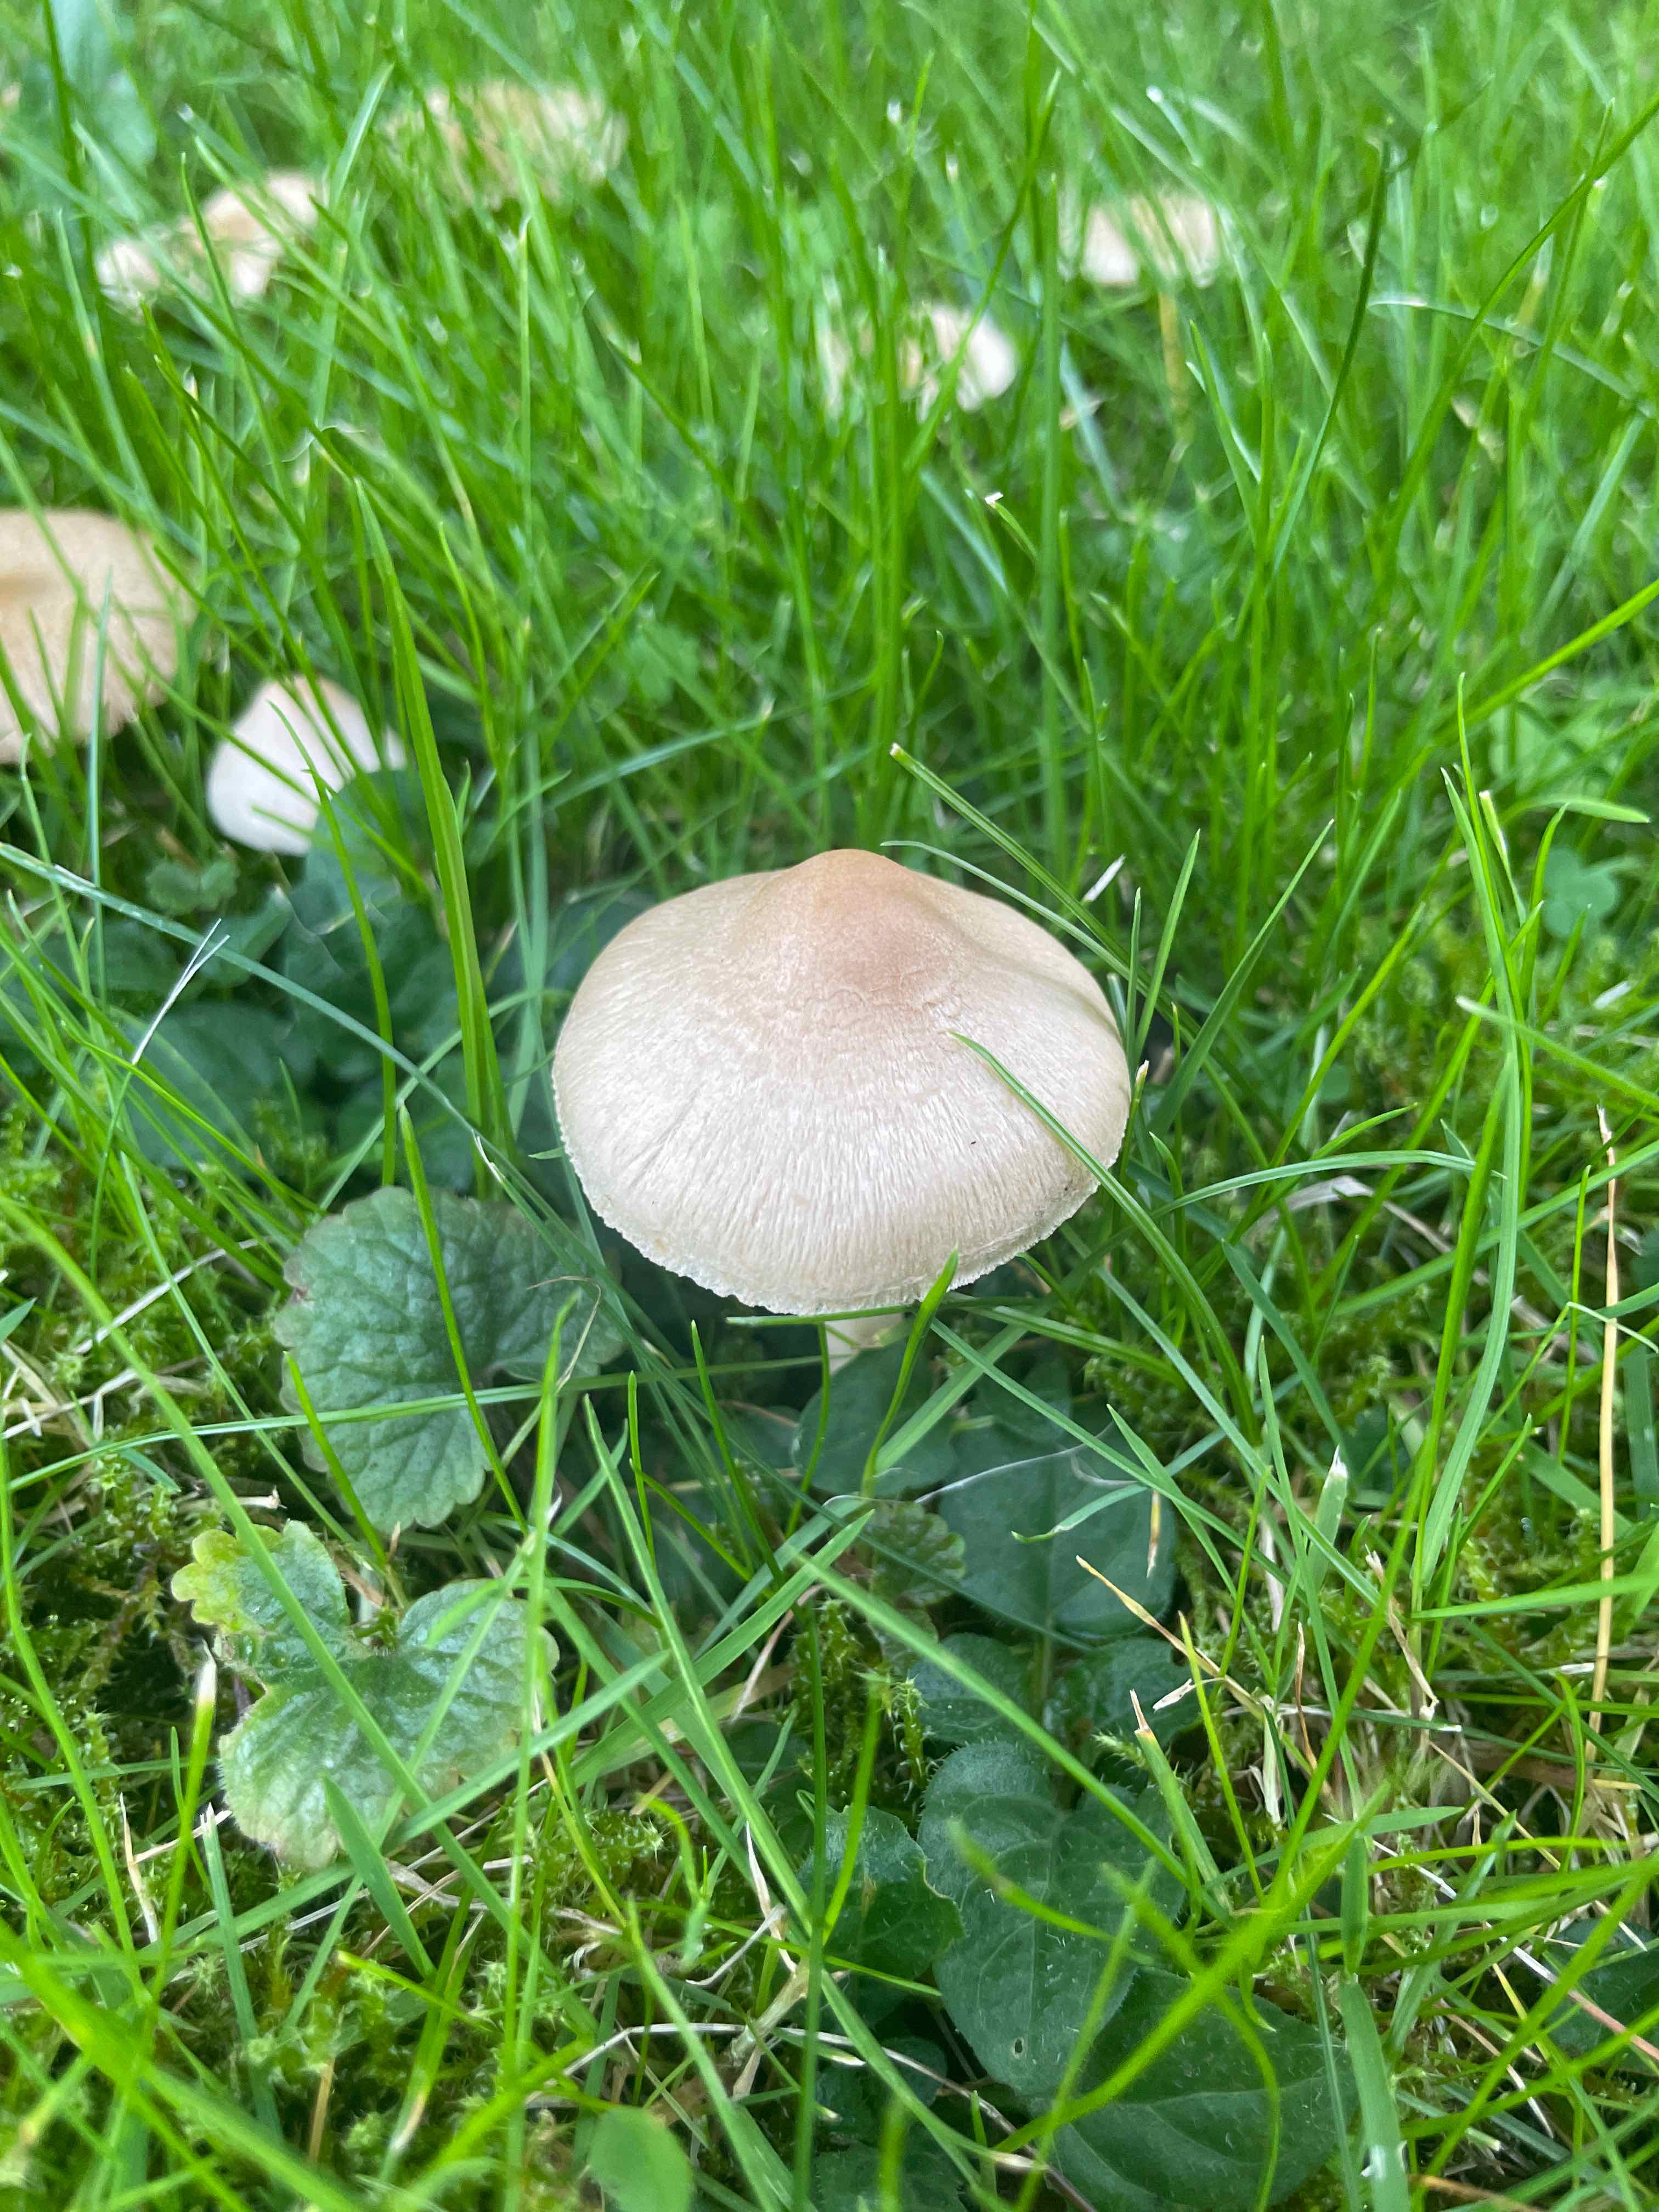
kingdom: Fungi
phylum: Basidiomycota
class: Agaricomycetes
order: Agaricales
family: Inocybaceae
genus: Inocybe
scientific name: Inocybe sindonia
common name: bleg trævlhat
